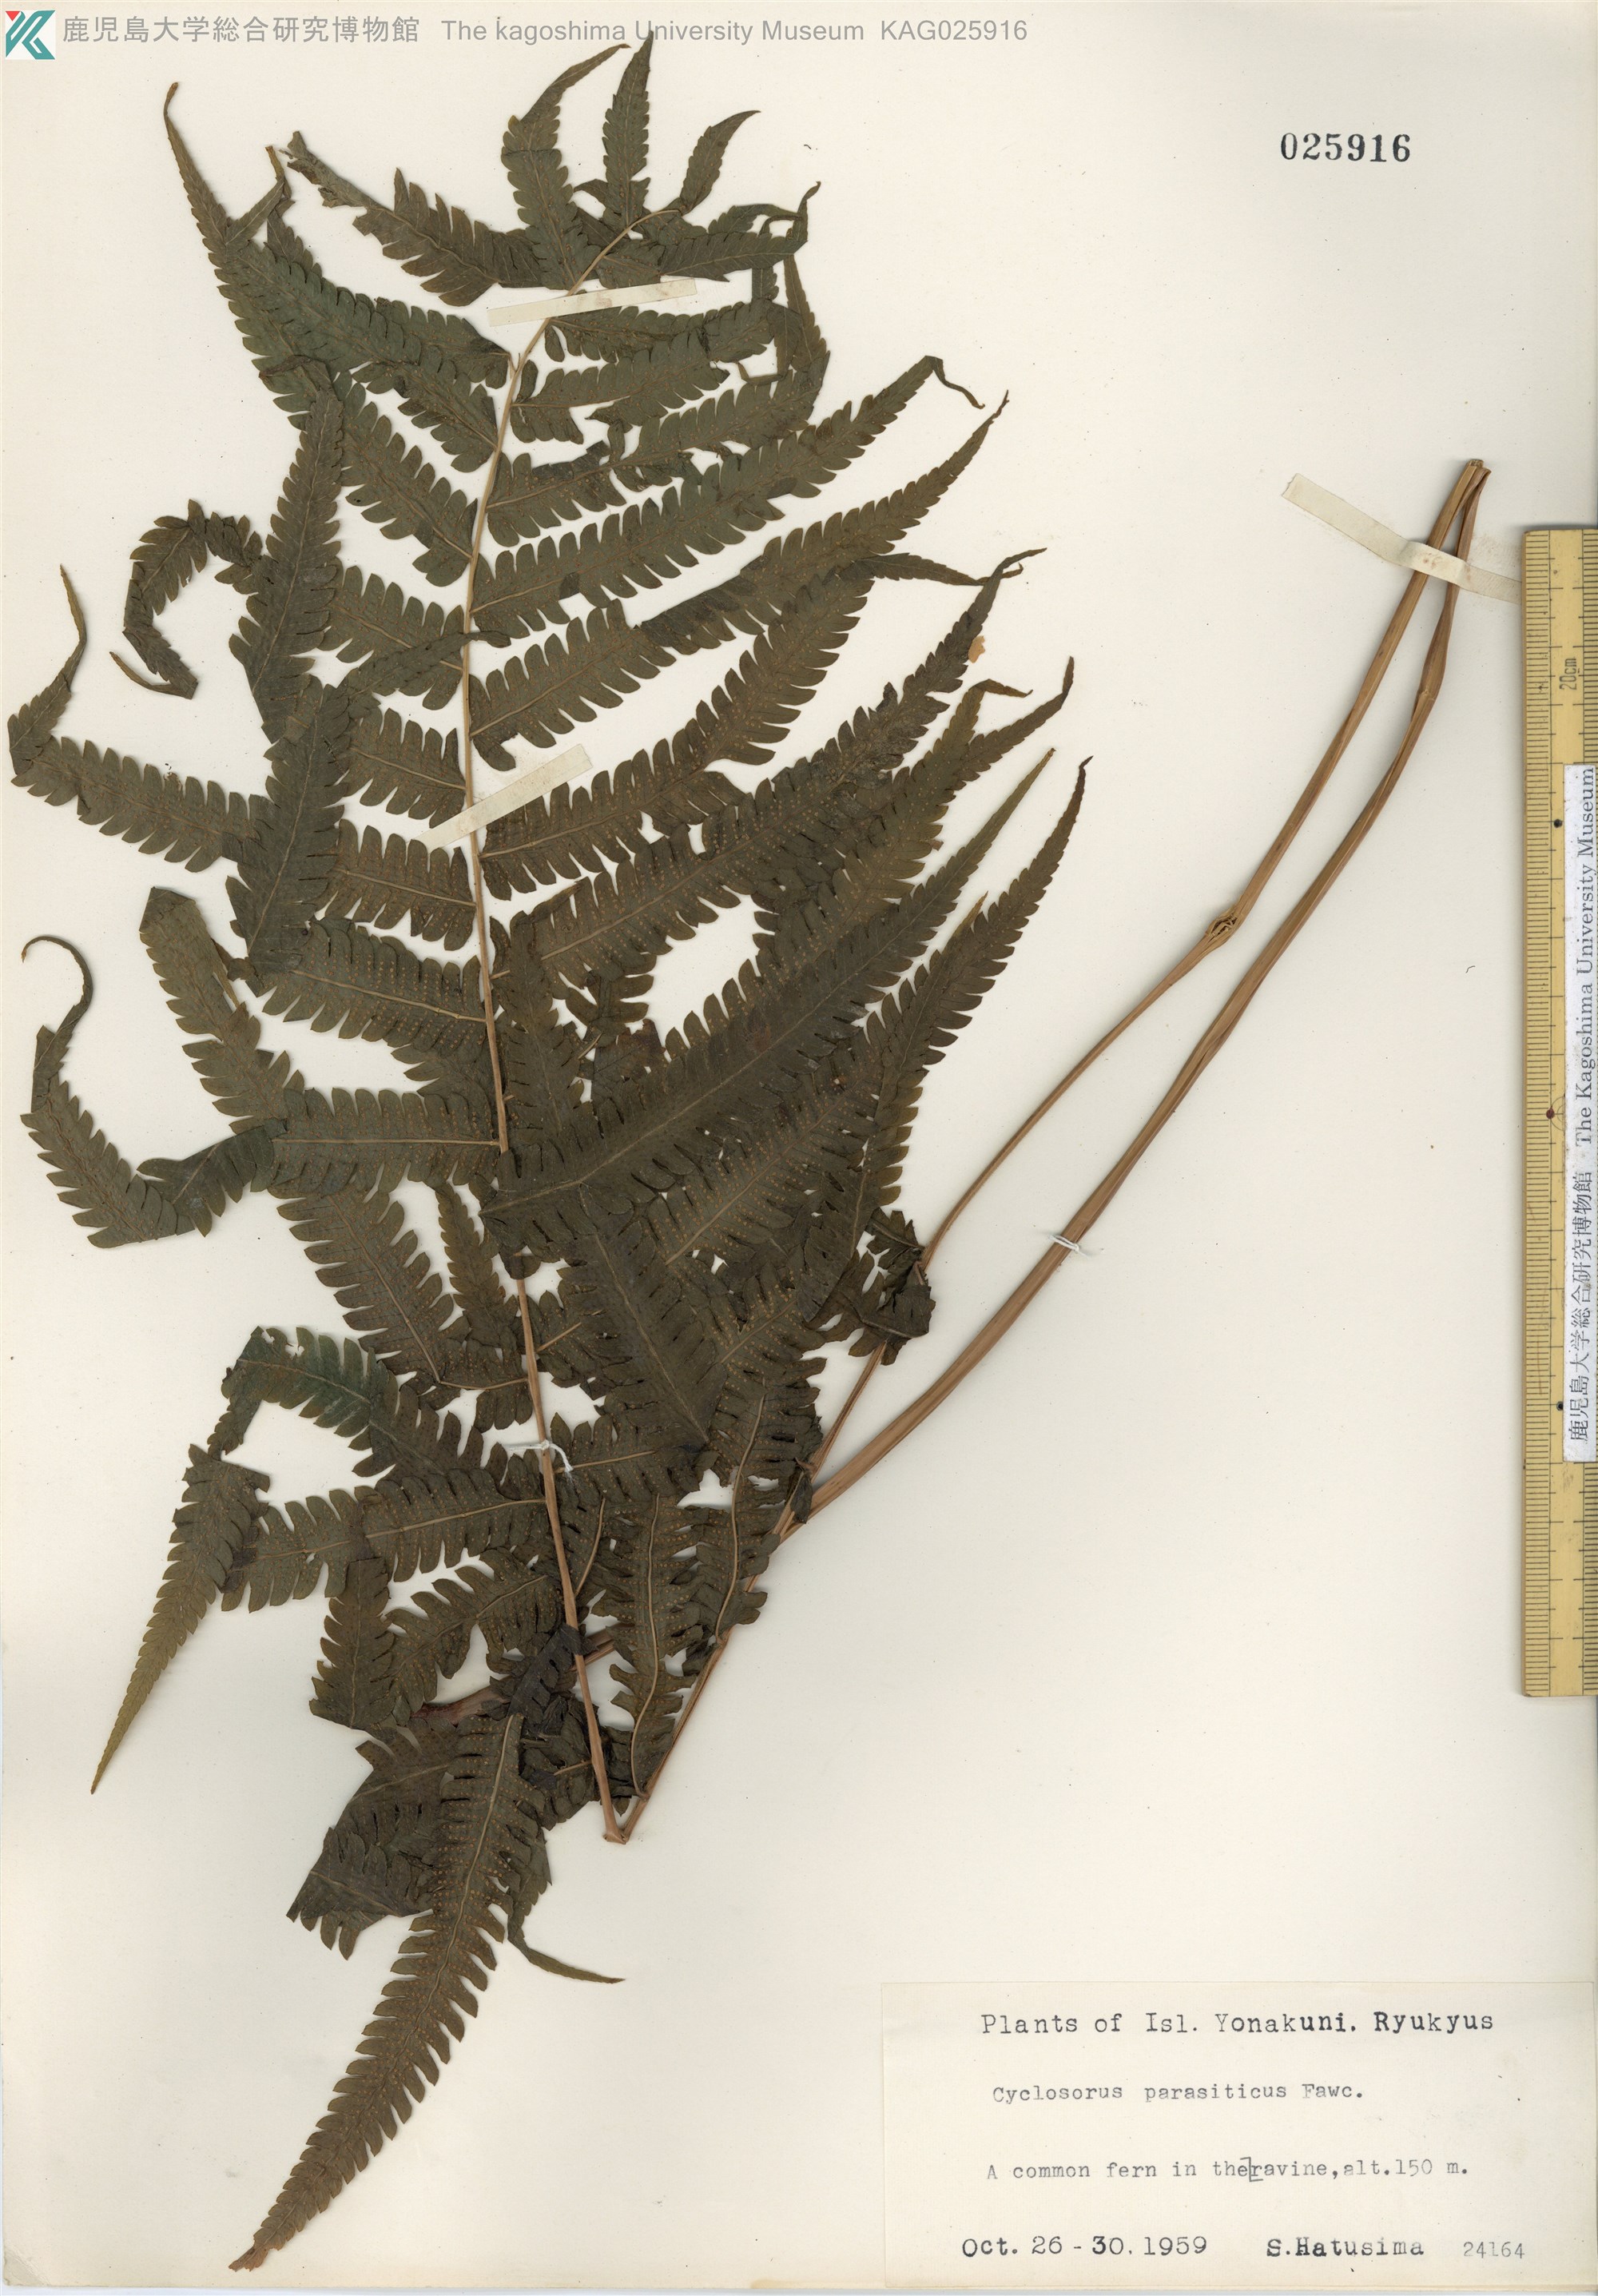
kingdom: Plantae
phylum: Tracheophyta
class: Polypodiopsida
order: Polypodiales
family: Thelypteridaceae
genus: Christella
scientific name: Christella parasitica
